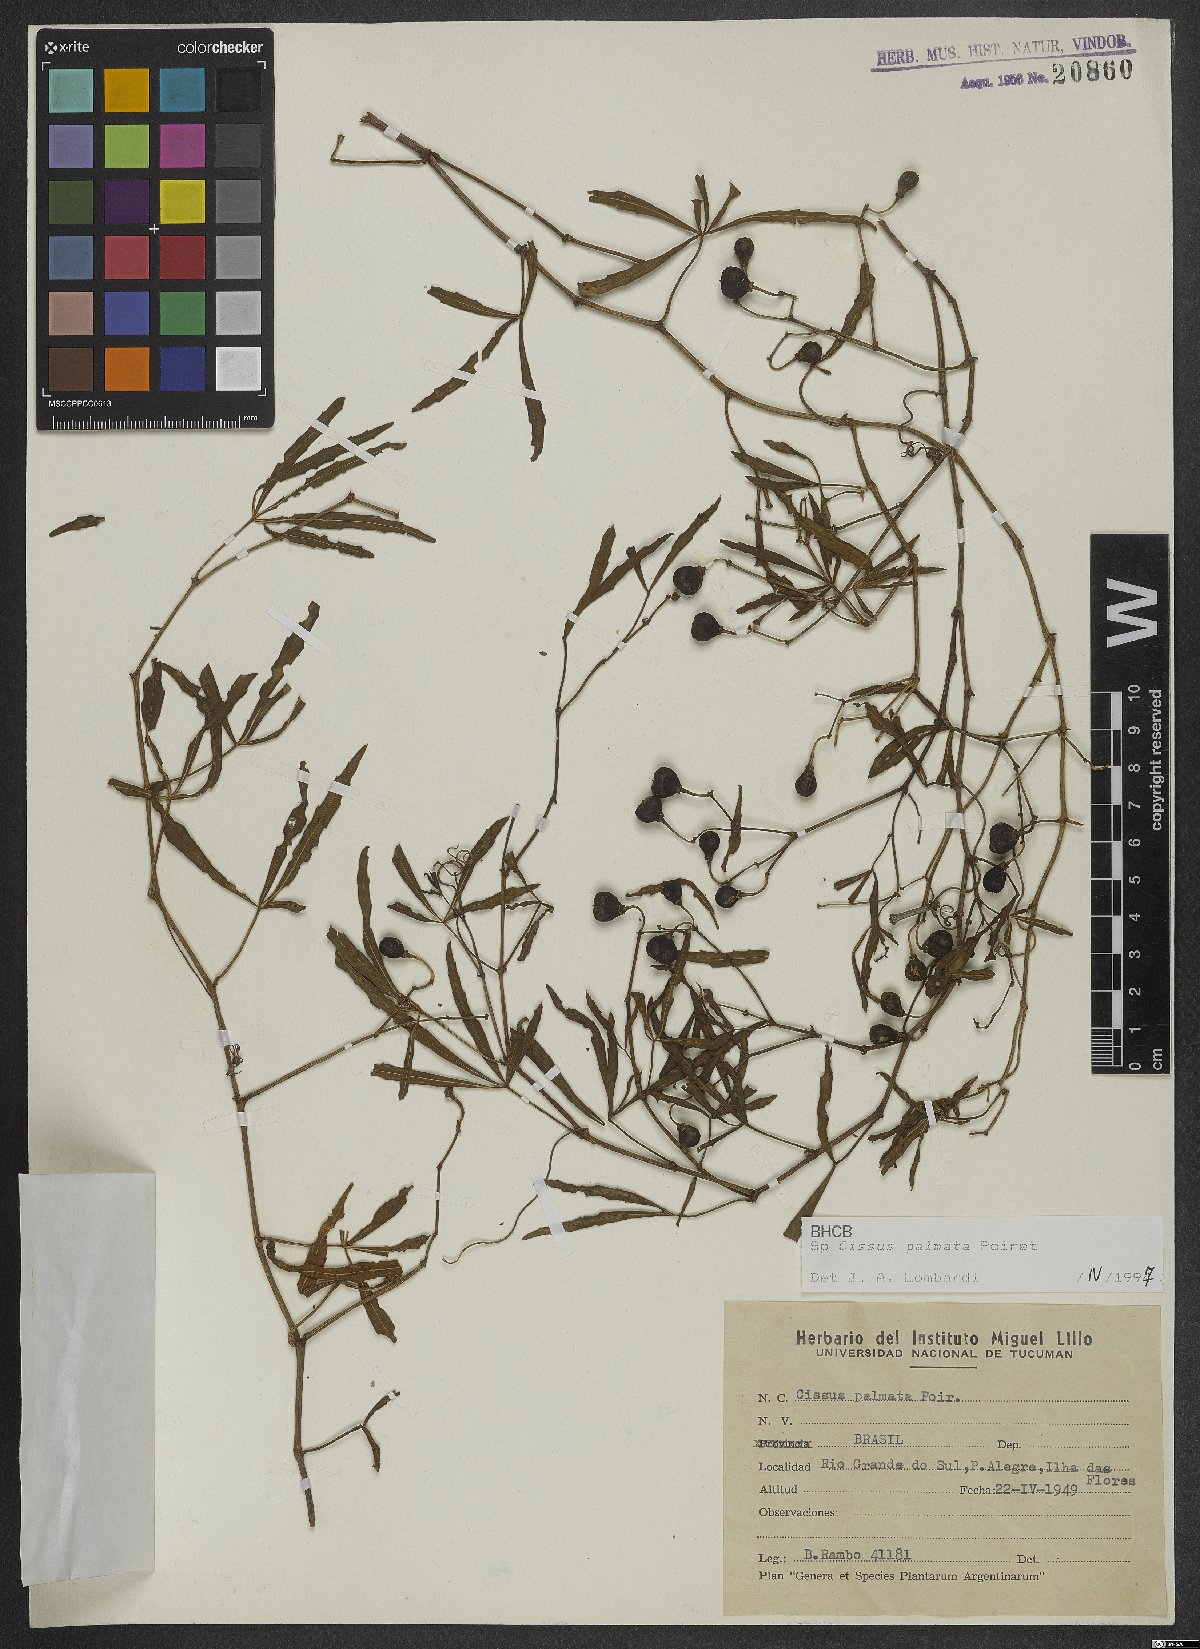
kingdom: Plantae
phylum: Tracheophyta
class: Magnoliopsida
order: Vitales
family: Vitaceae
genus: Cissus
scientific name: Cissus palmata
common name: Grape
